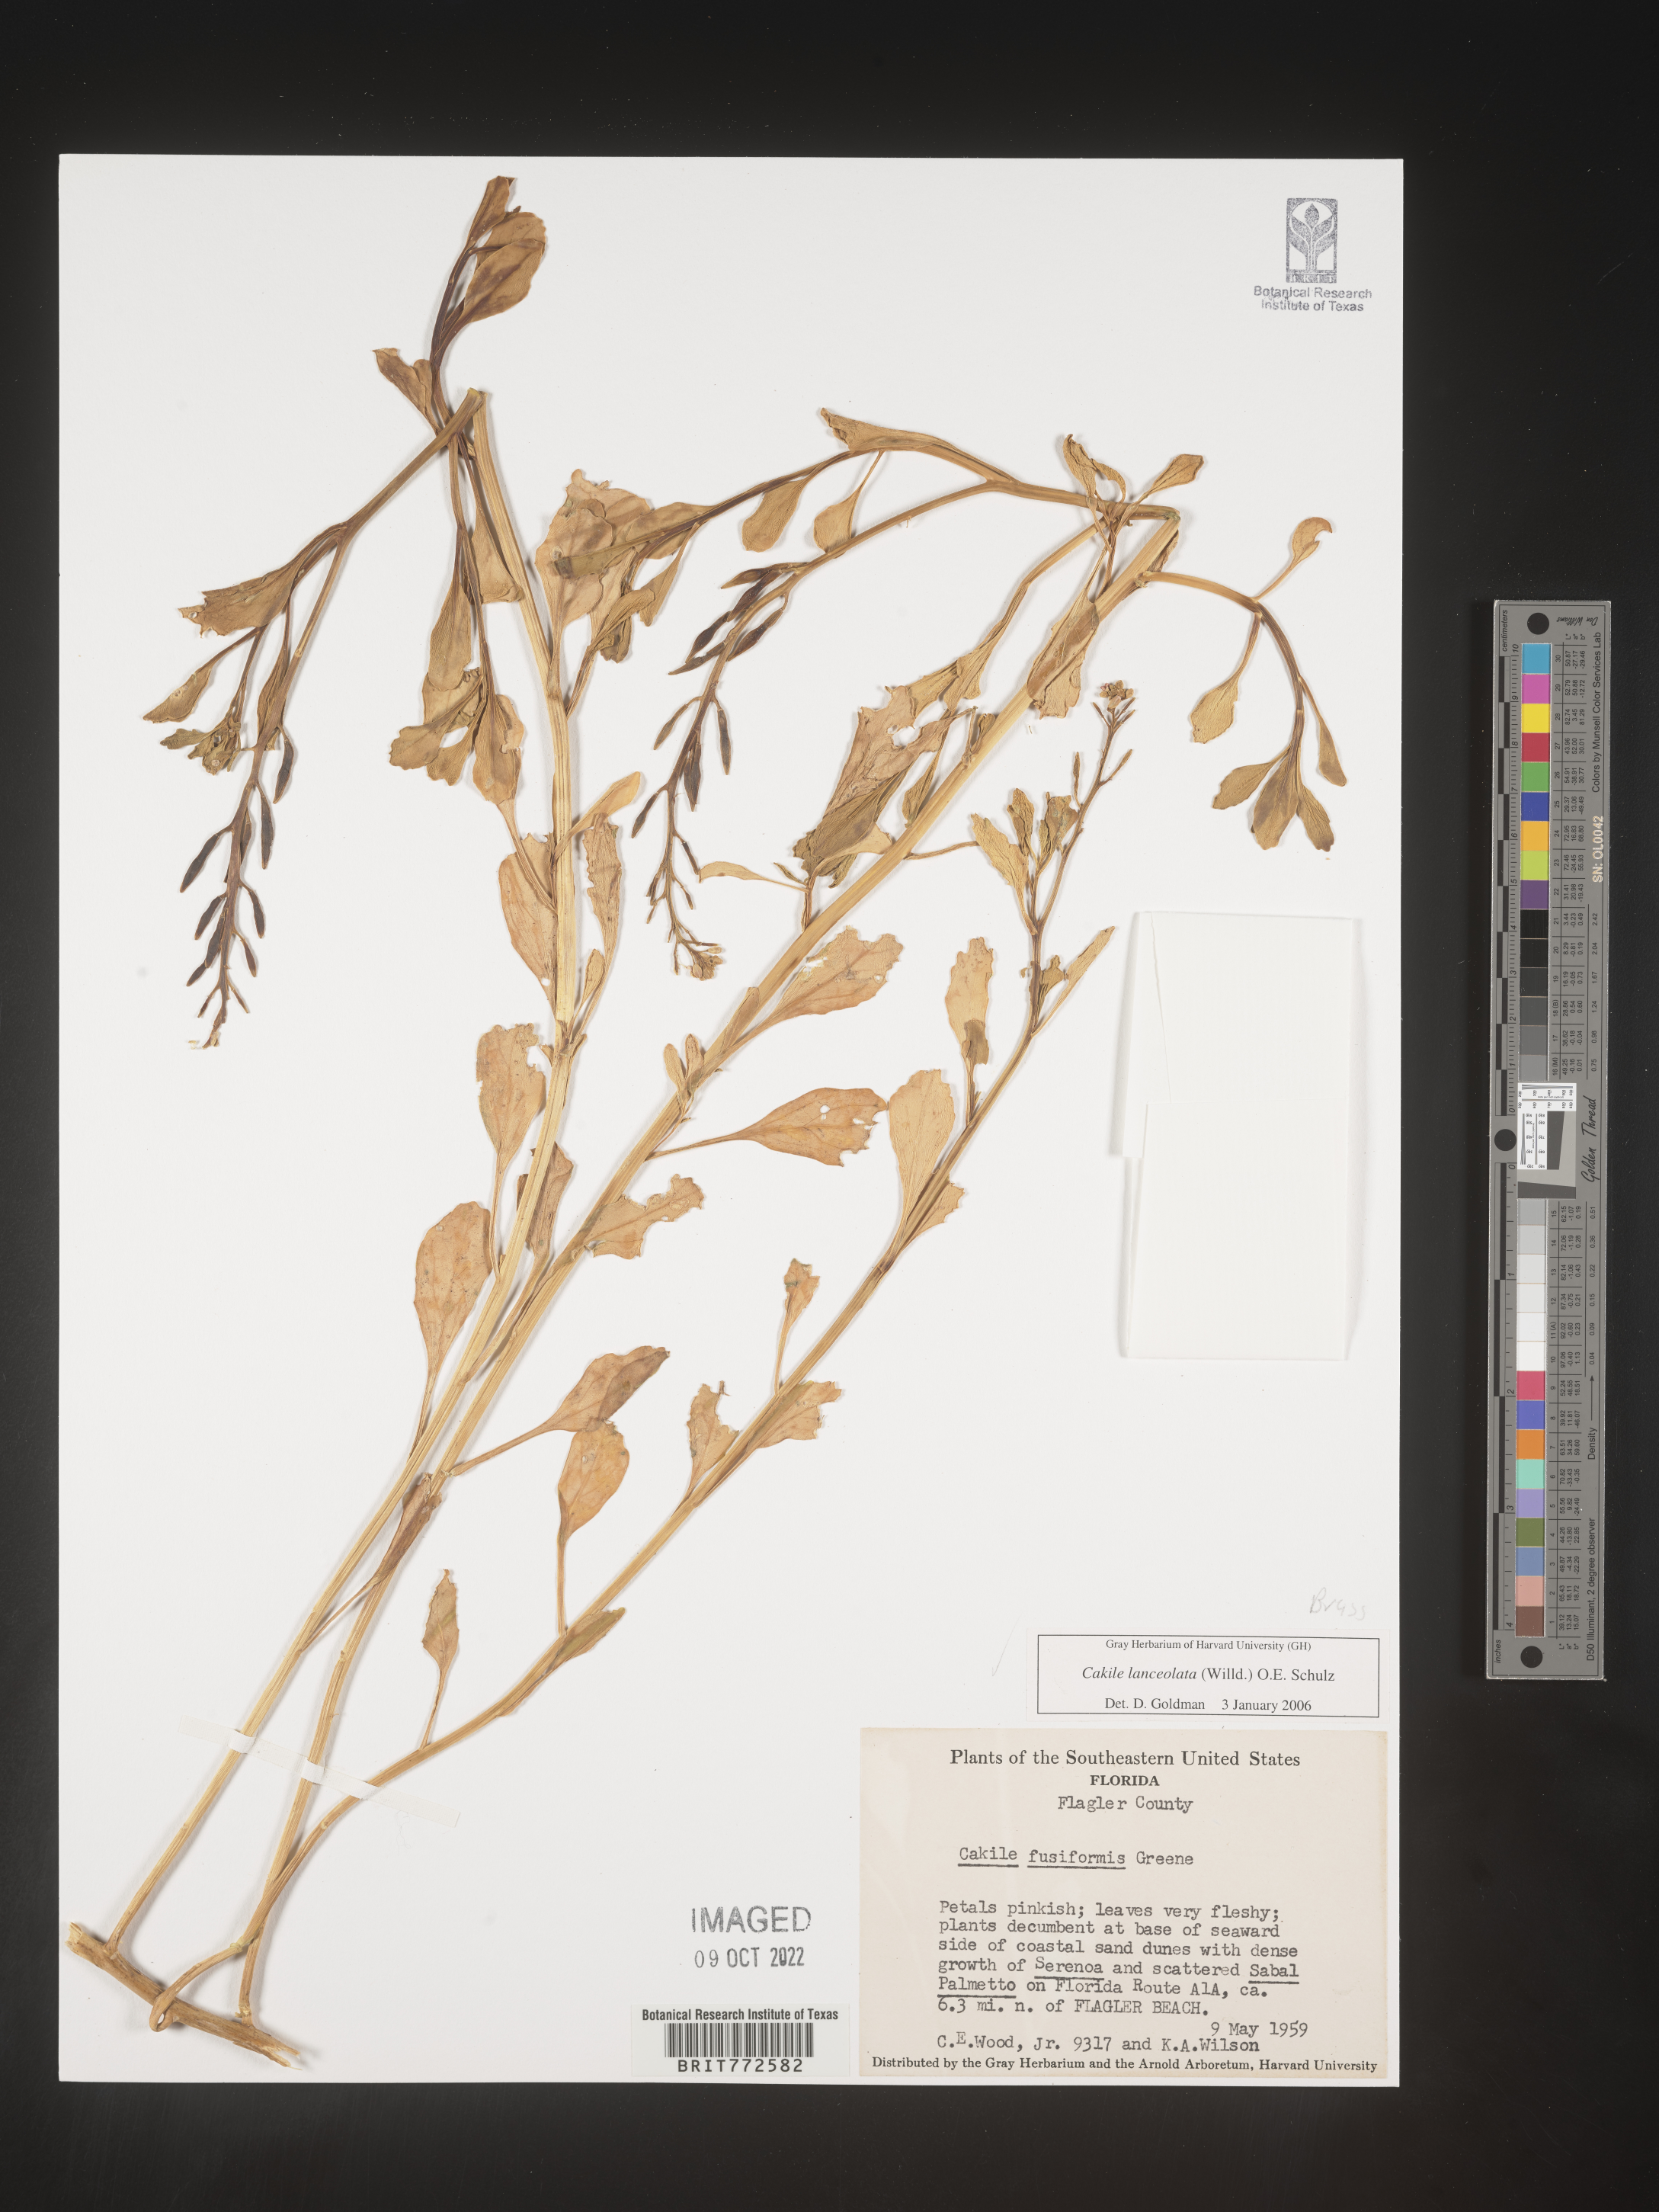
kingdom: Plantae
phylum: Tracheophyta
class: Magnoliopsida
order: Brassicales
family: Brassicaceae
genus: Cakile
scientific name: Cakile lanceolata
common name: Sea rocket
